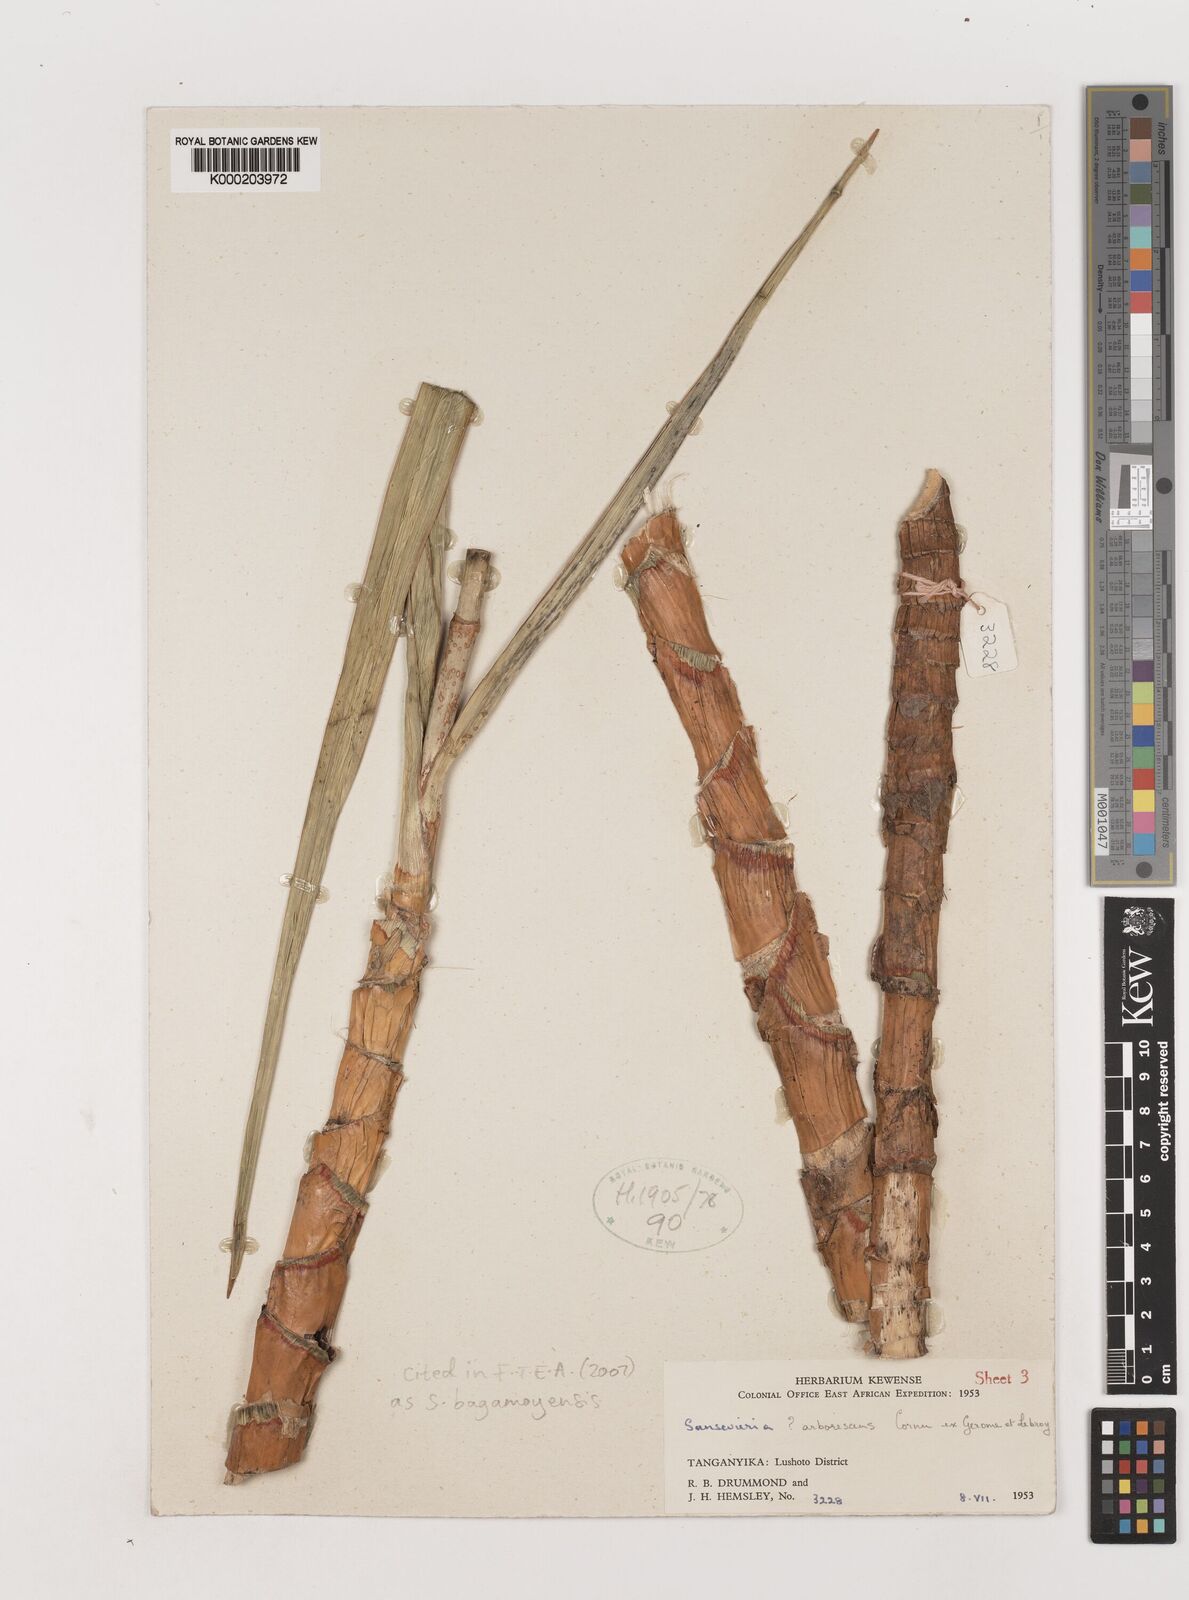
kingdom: Plantae
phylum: Tracheophyta
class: Liliopsida
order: Asparagales
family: Asparagaceae
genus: Dracaena
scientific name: Dracaena ascendens
